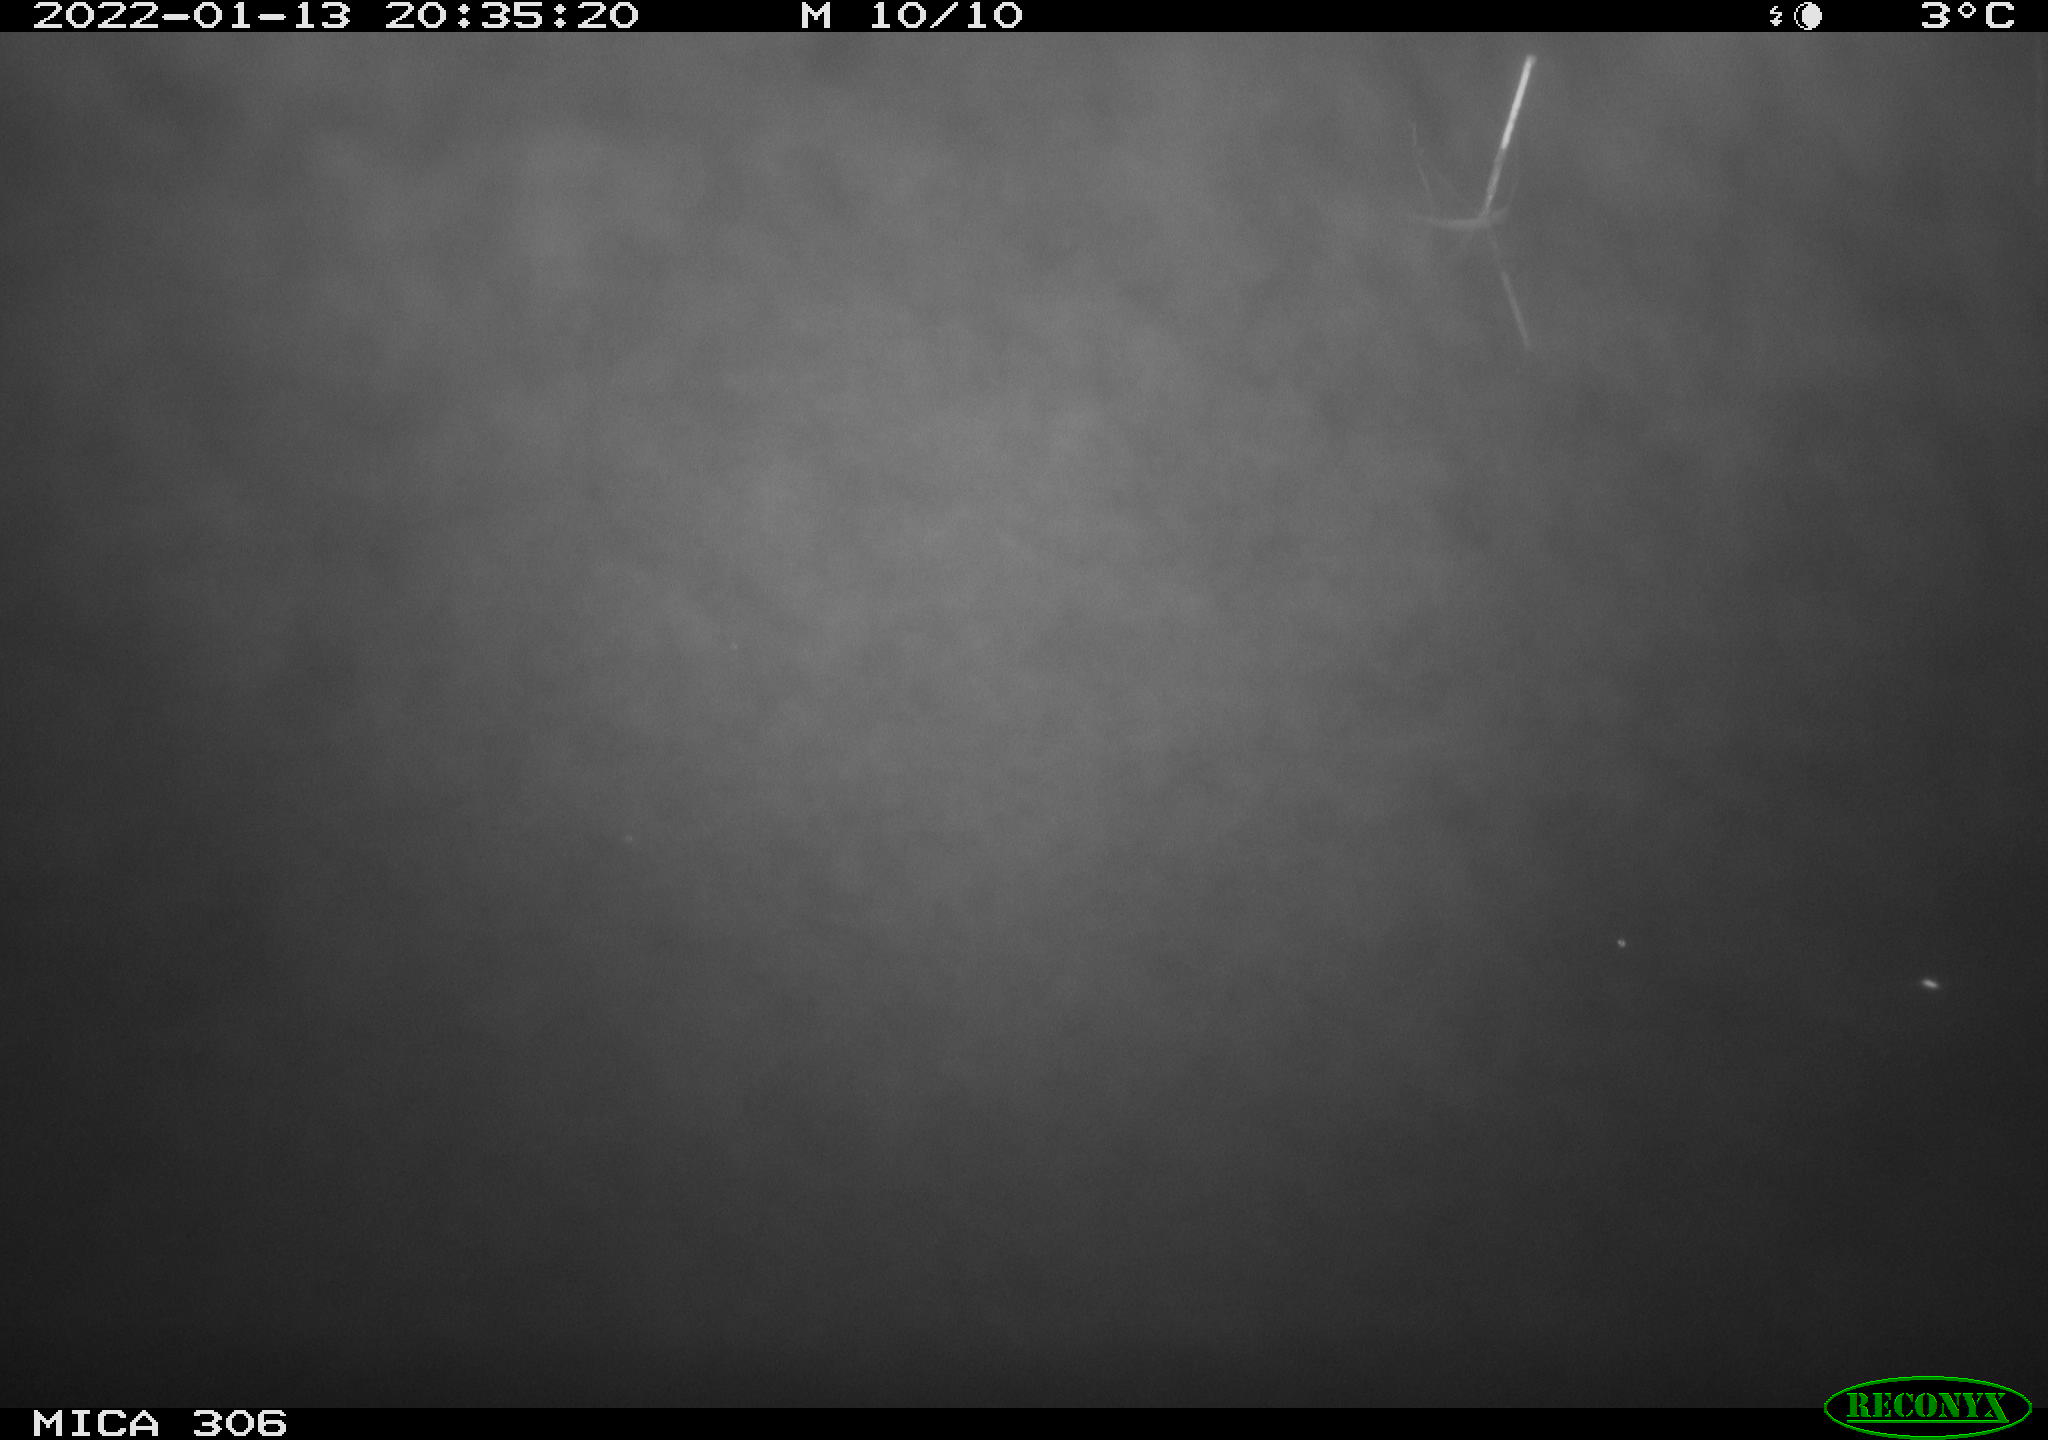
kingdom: Animalia
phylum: Chordata
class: Mammalia
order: Rodentia
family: Muridae
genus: Rattus
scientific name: Rattus norvegicus
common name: Brown rat
